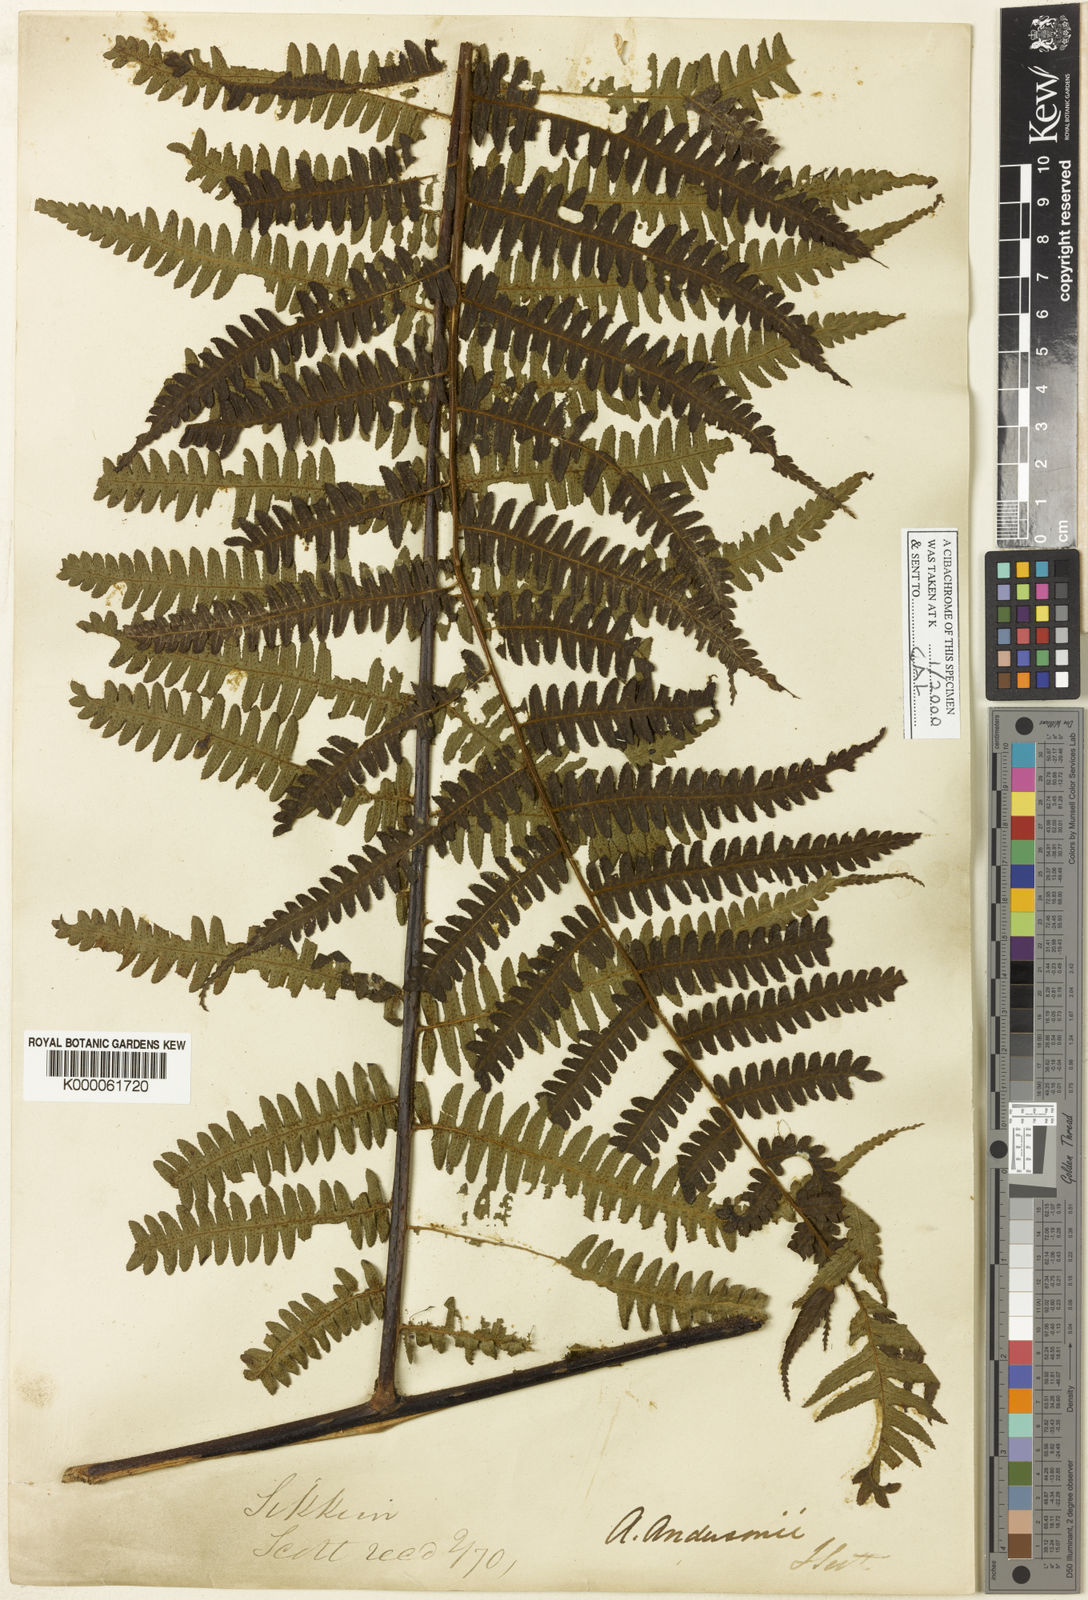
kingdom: Plantae
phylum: Tracheophyta
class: Polypodiopsida
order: Cyatheales
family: Cyatheaceae
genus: Gymnosphaera
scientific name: Gymnosphaera andersonii
